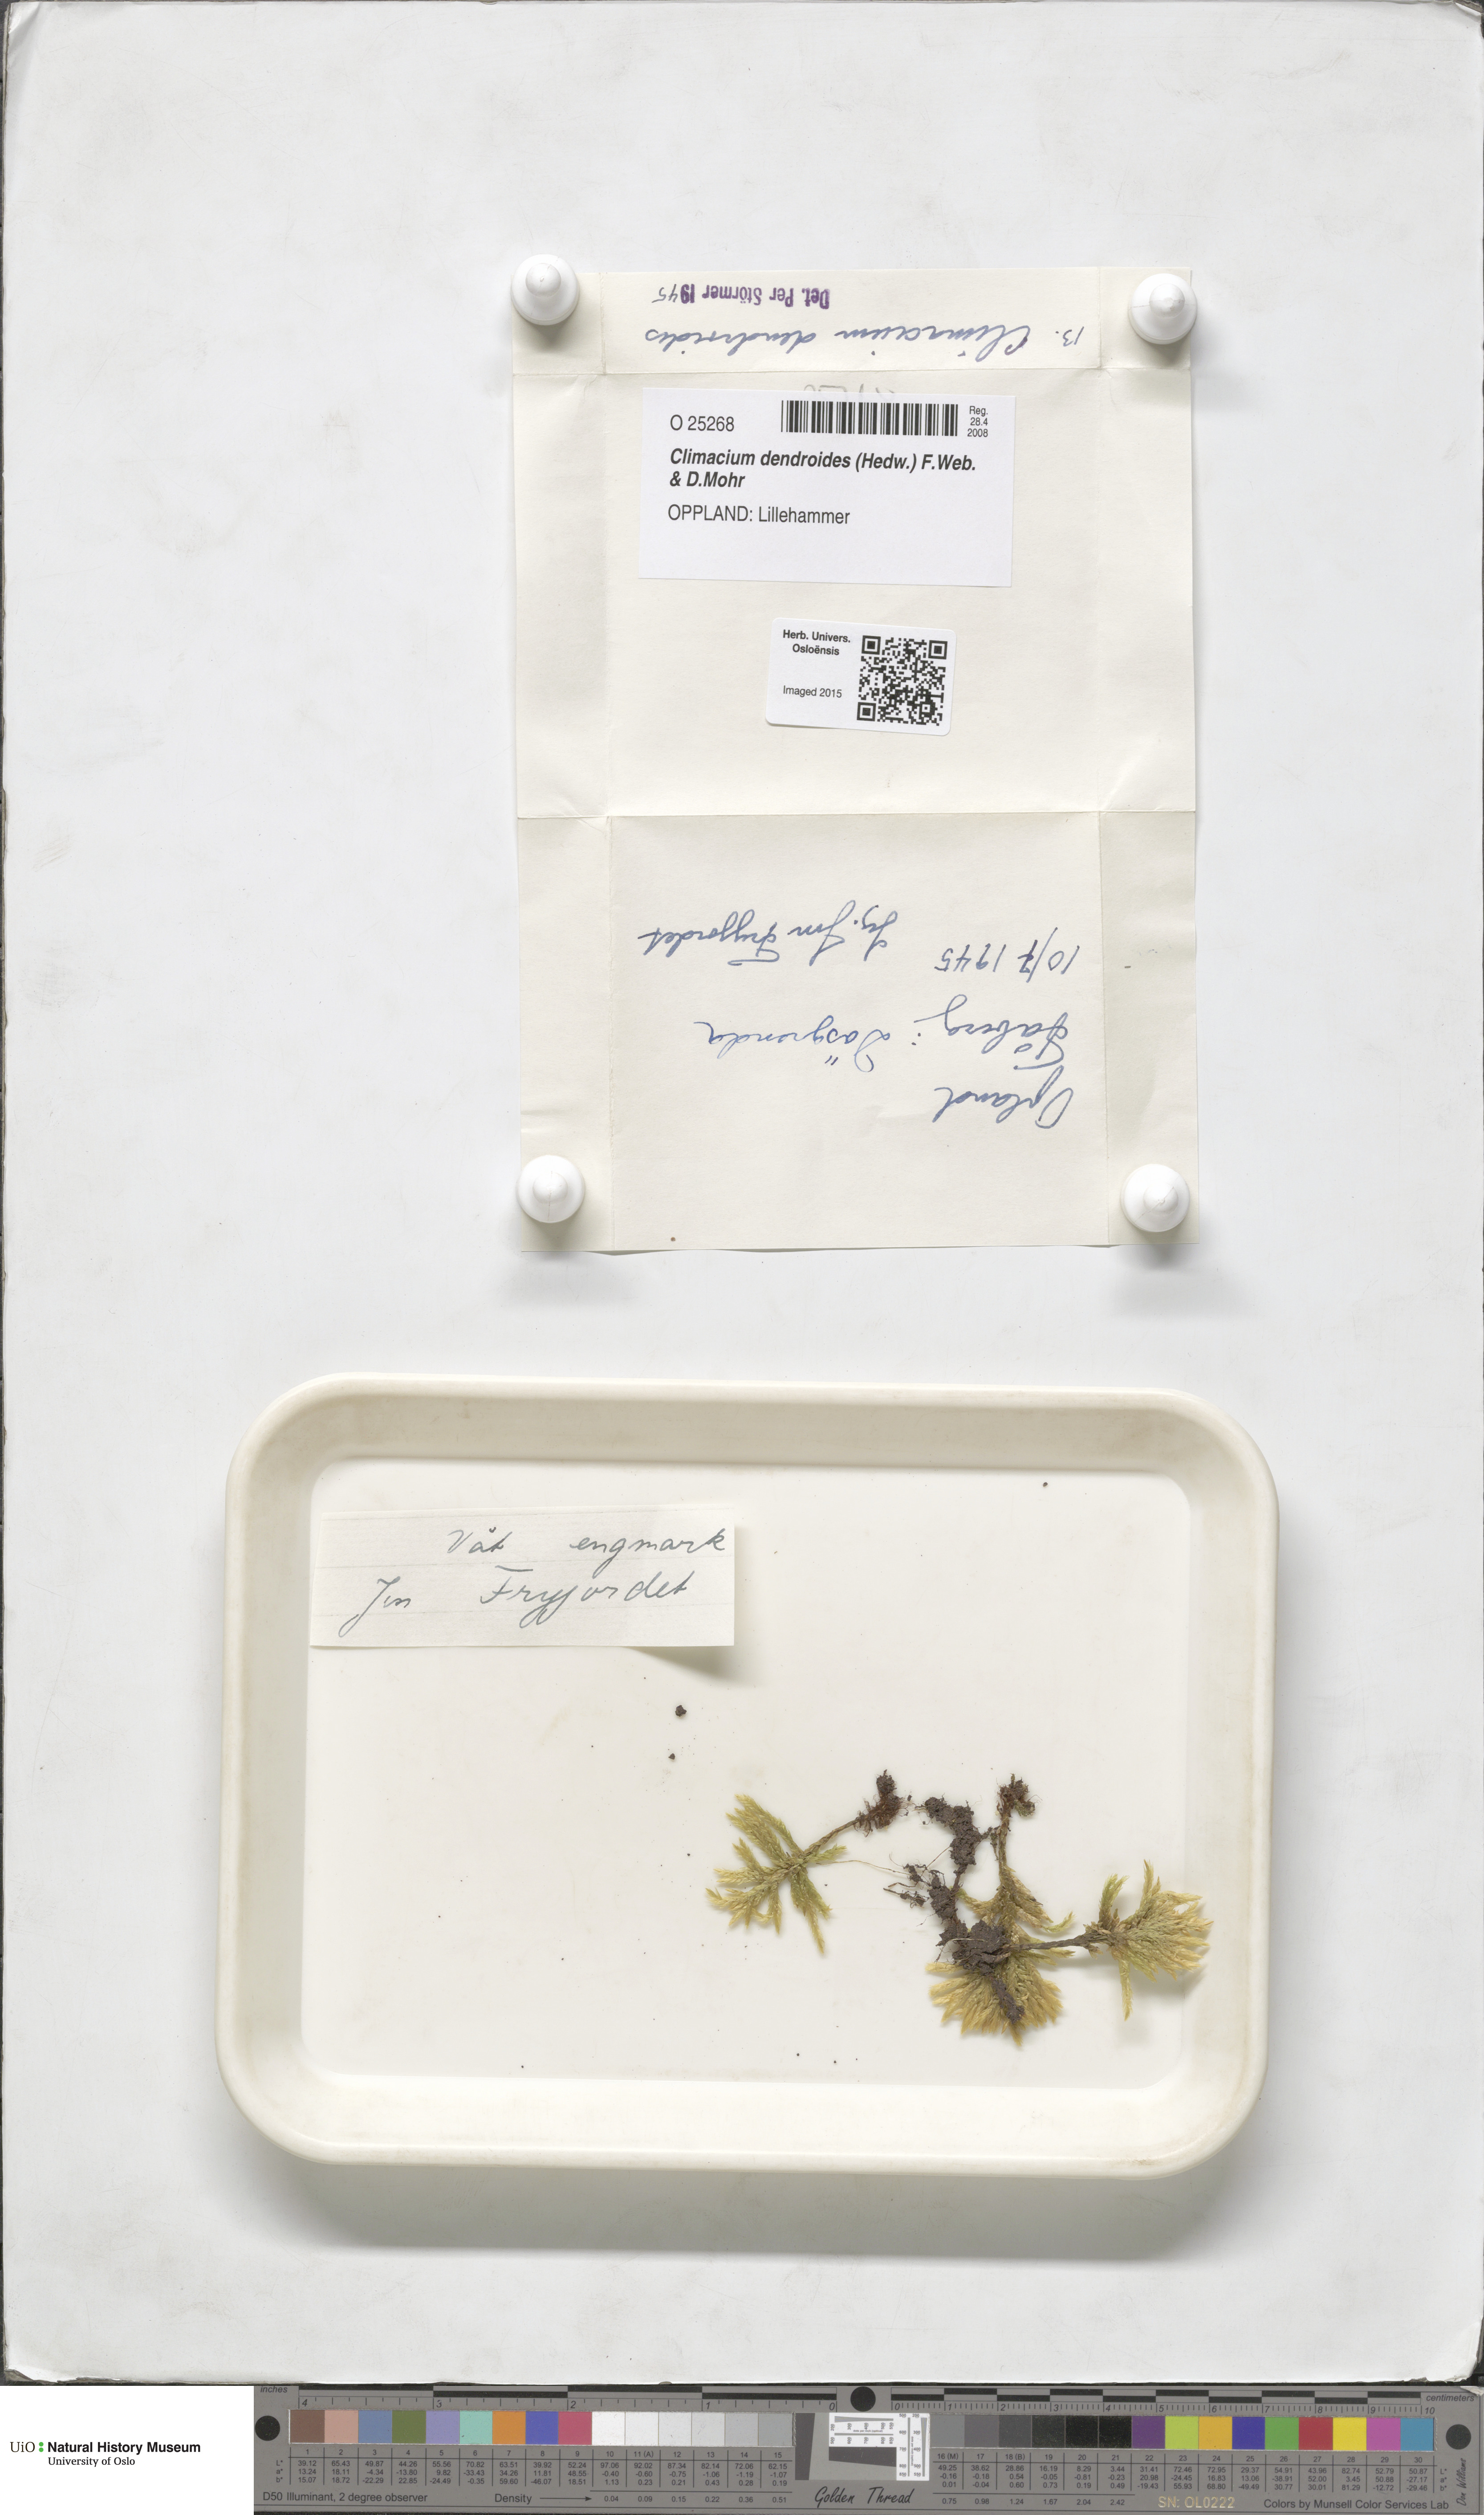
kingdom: Plantae
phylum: Bryophyta
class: Bryopsida
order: Hypnales
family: Climaciaceae
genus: Climacium
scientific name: Climacium dendroides
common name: Northern tree moss
